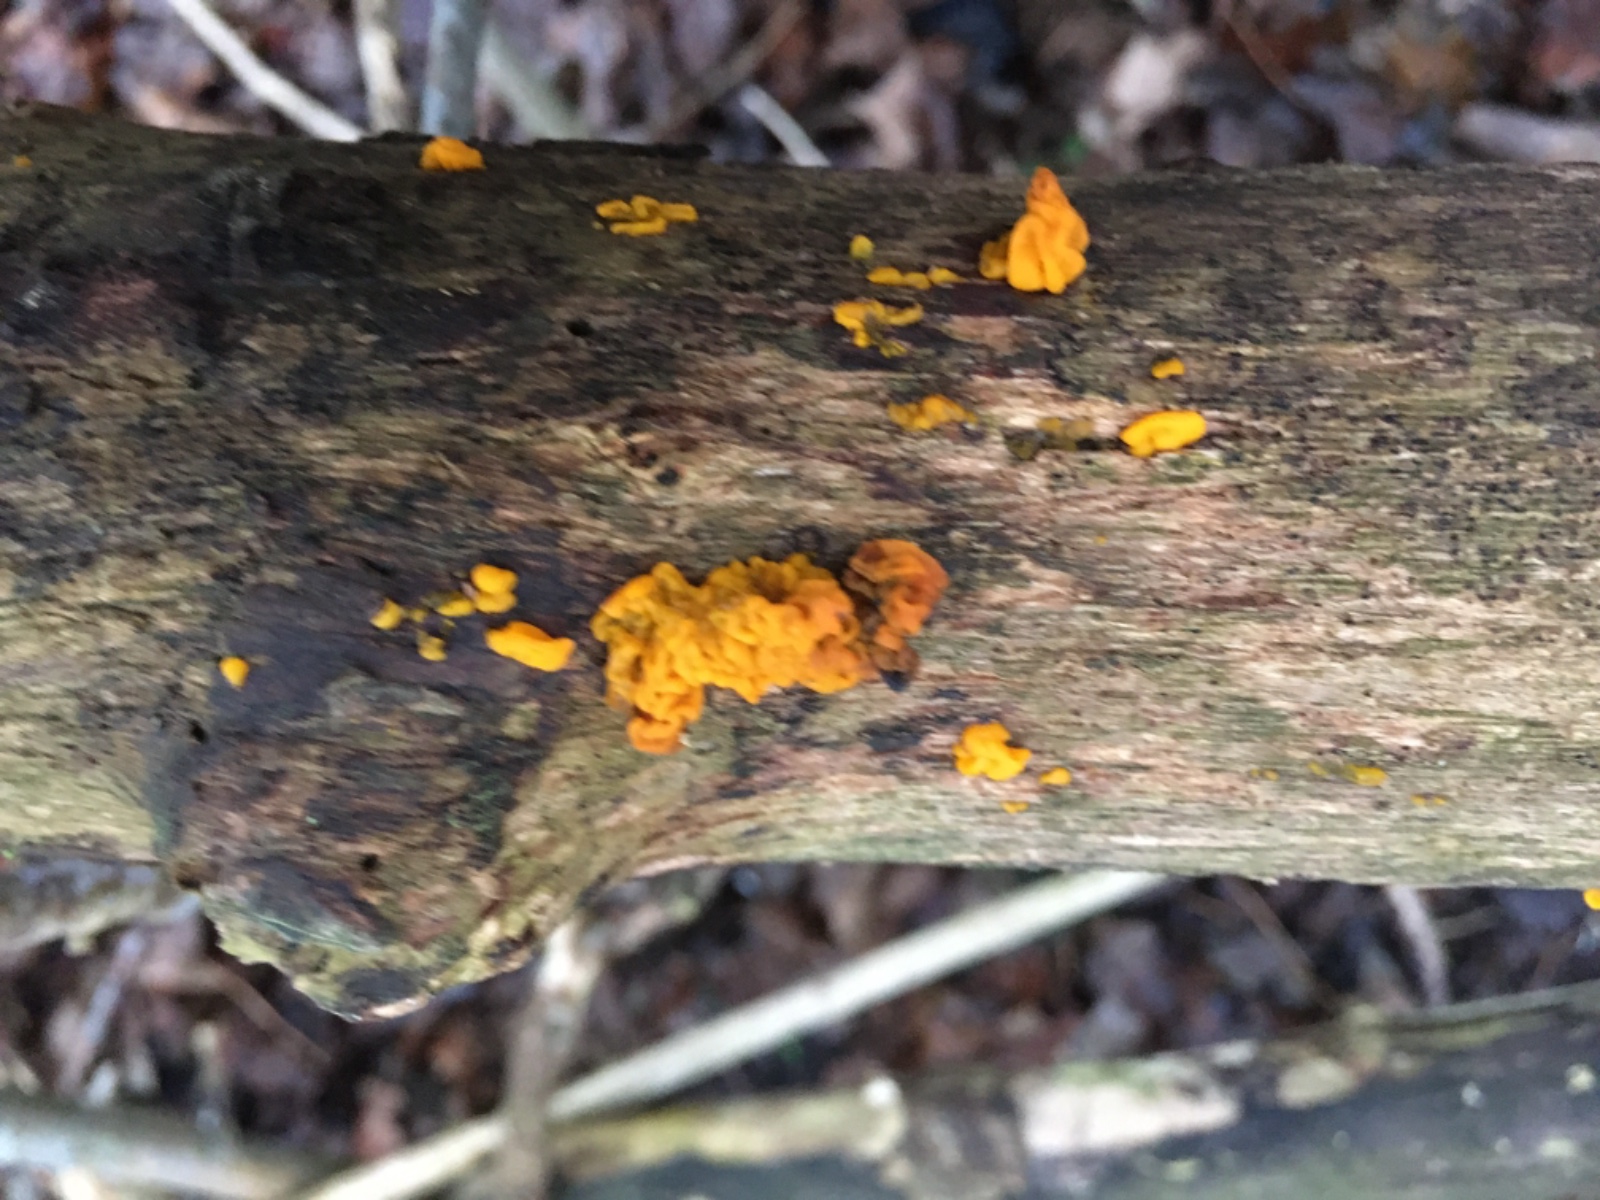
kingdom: Fungi
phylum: Basidiomycota
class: Tremellomycetes
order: Tremellales
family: Tremellaceae
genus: Tremella
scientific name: Tremella mesenterica
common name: gul bævresvamp
